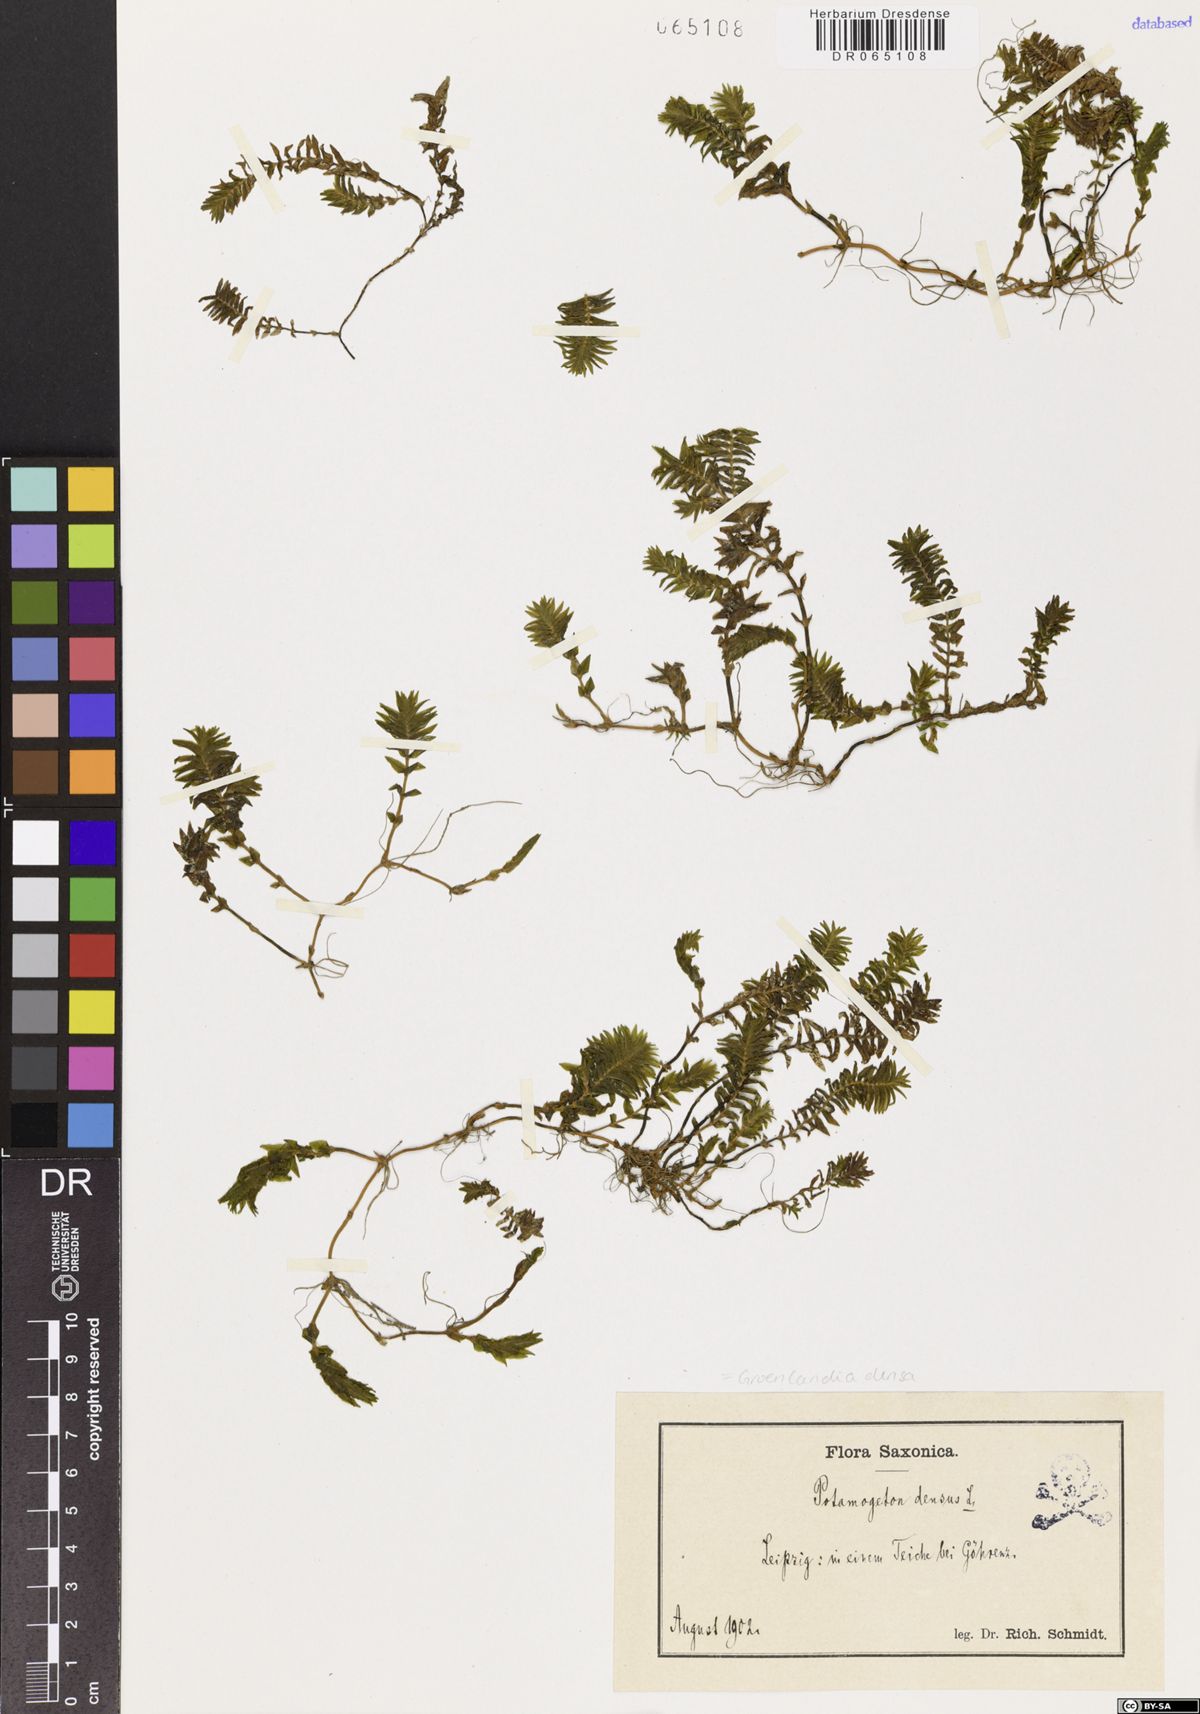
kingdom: Plantae
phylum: Tracheophyta
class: Liliopsida
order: Alismatales
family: Potamogetonaceae
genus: Groenlandia
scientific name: Groenlandia densa
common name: Opposite-leaved pondweed
